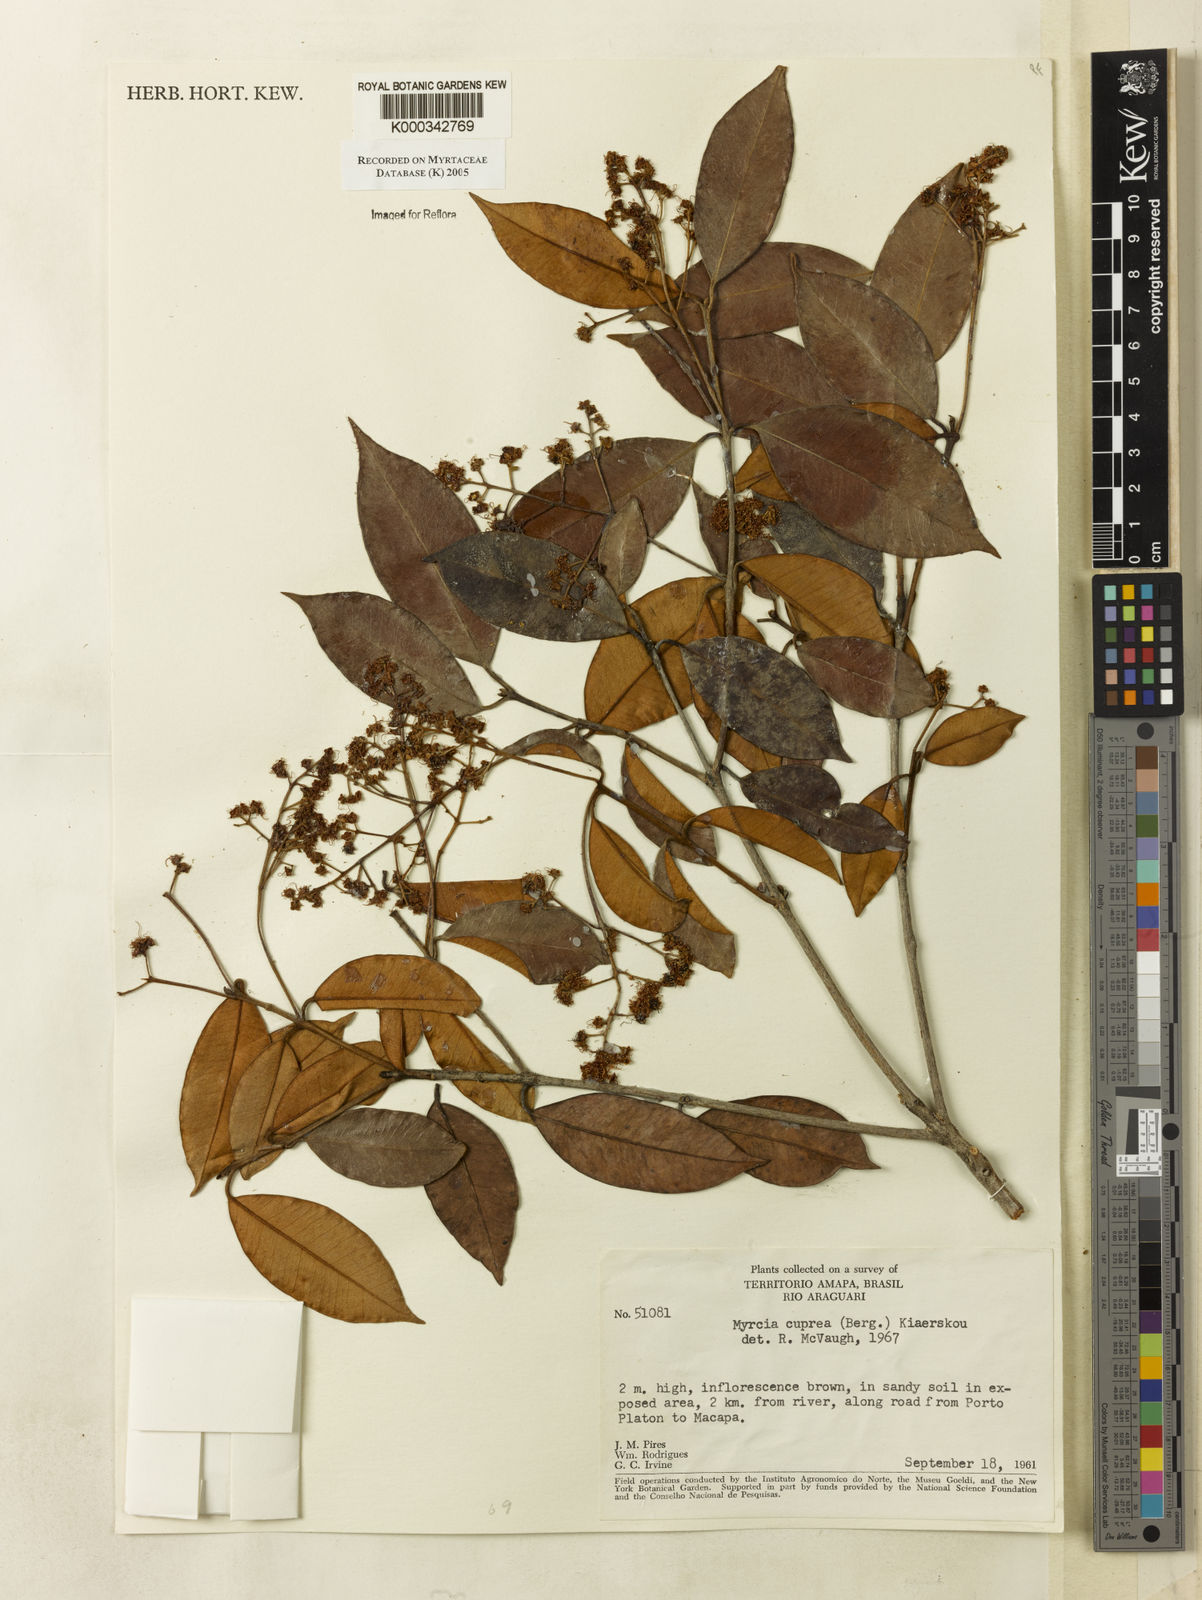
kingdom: Plantae
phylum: Tracheophyta
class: Magnoliopsida
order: Myrtales
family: Myrtaceae
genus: Myrcia
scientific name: Myrcia cuprea
